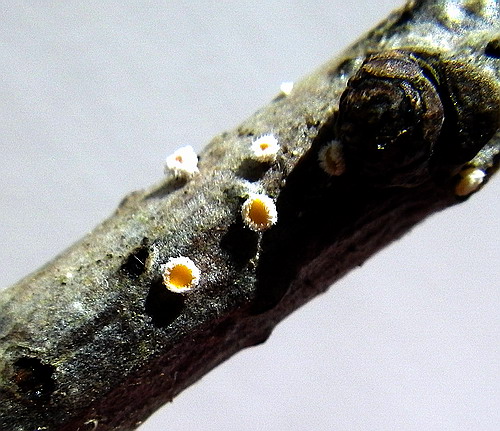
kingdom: Fungi
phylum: Ascomycota
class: Leotiomycetes
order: Helotiales
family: Lachnaceae
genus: Capitotricha
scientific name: Capitotricha bicolor
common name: prægtig frynseskive
